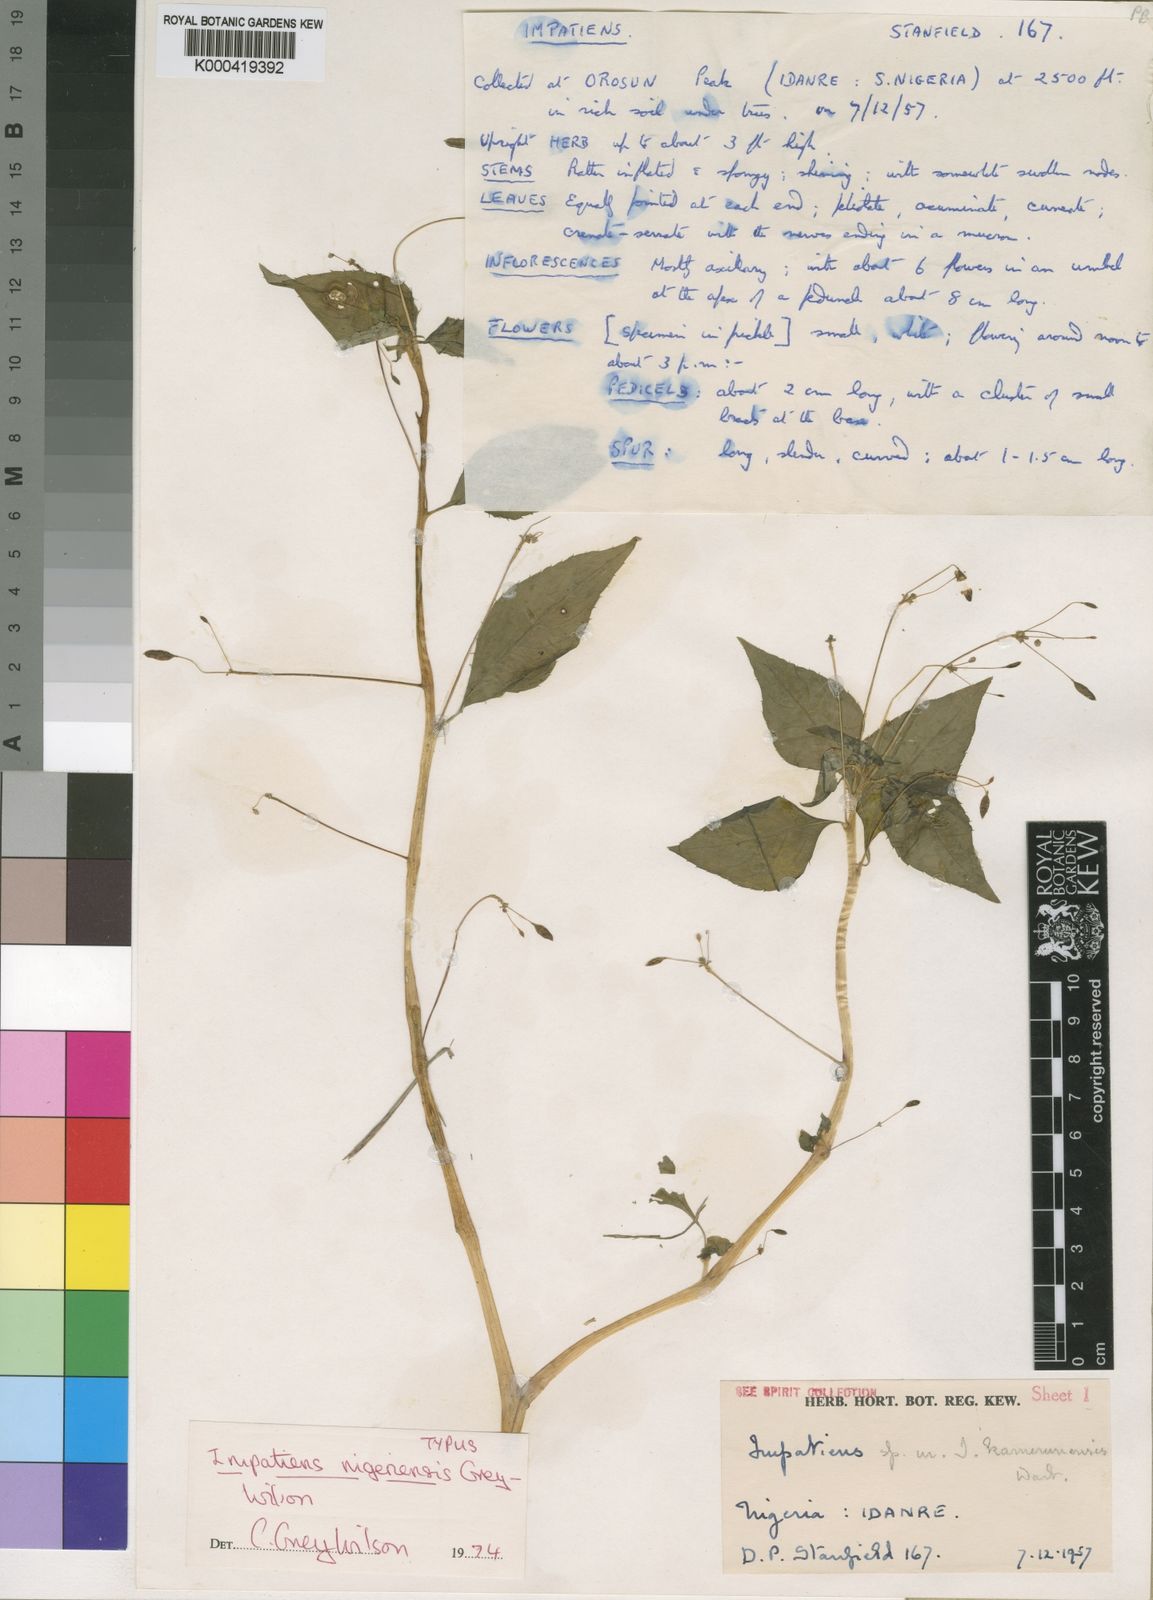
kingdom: Plantae
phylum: Tracheophyta
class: Magnoliopsida
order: Ericales
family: Balsaminaceae
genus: Impatiens
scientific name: Impatiens nigeriensis
